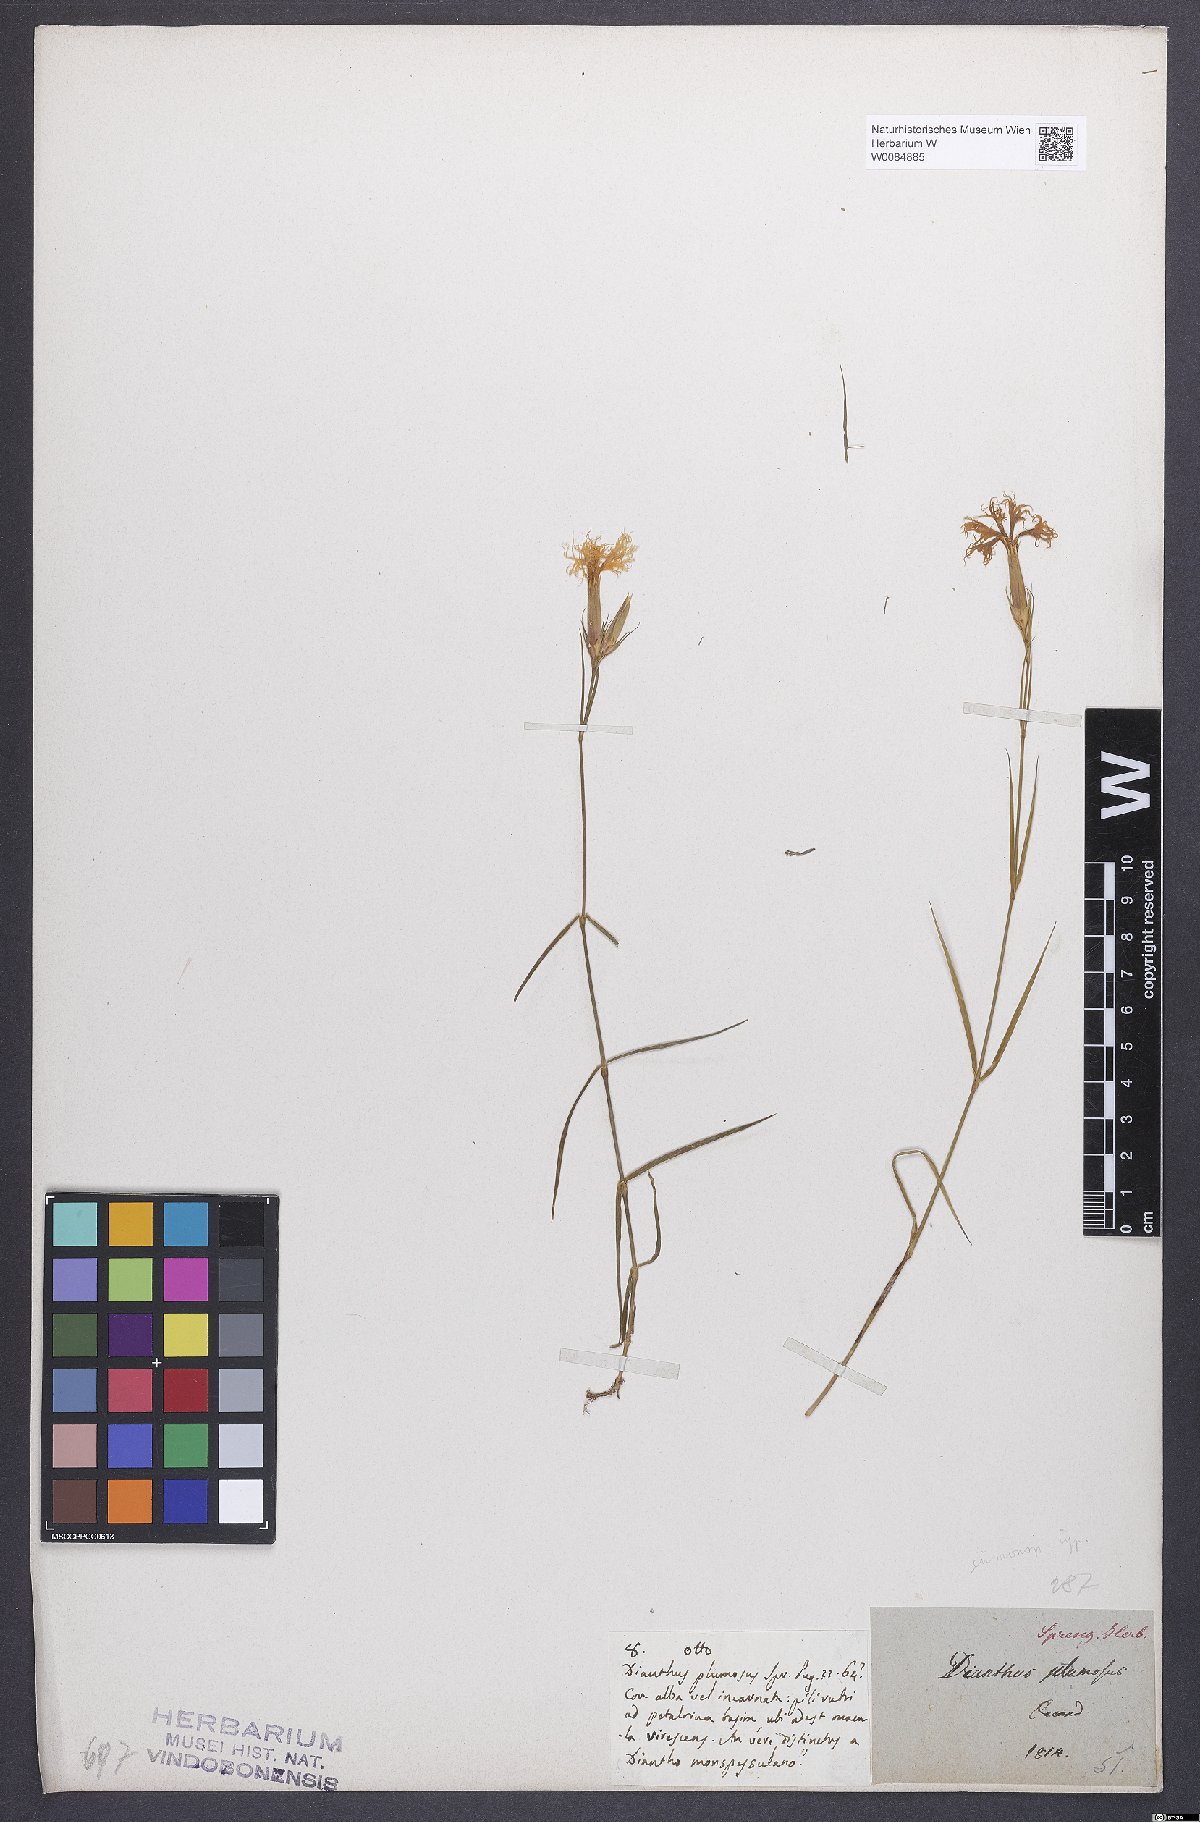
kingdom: Plantae
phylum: Tracheophyta
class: Magnoliopsida
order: Caryophyllales
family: Caryophyllaceae
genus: Dianthus
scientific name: Dianthus hyssopifolius
